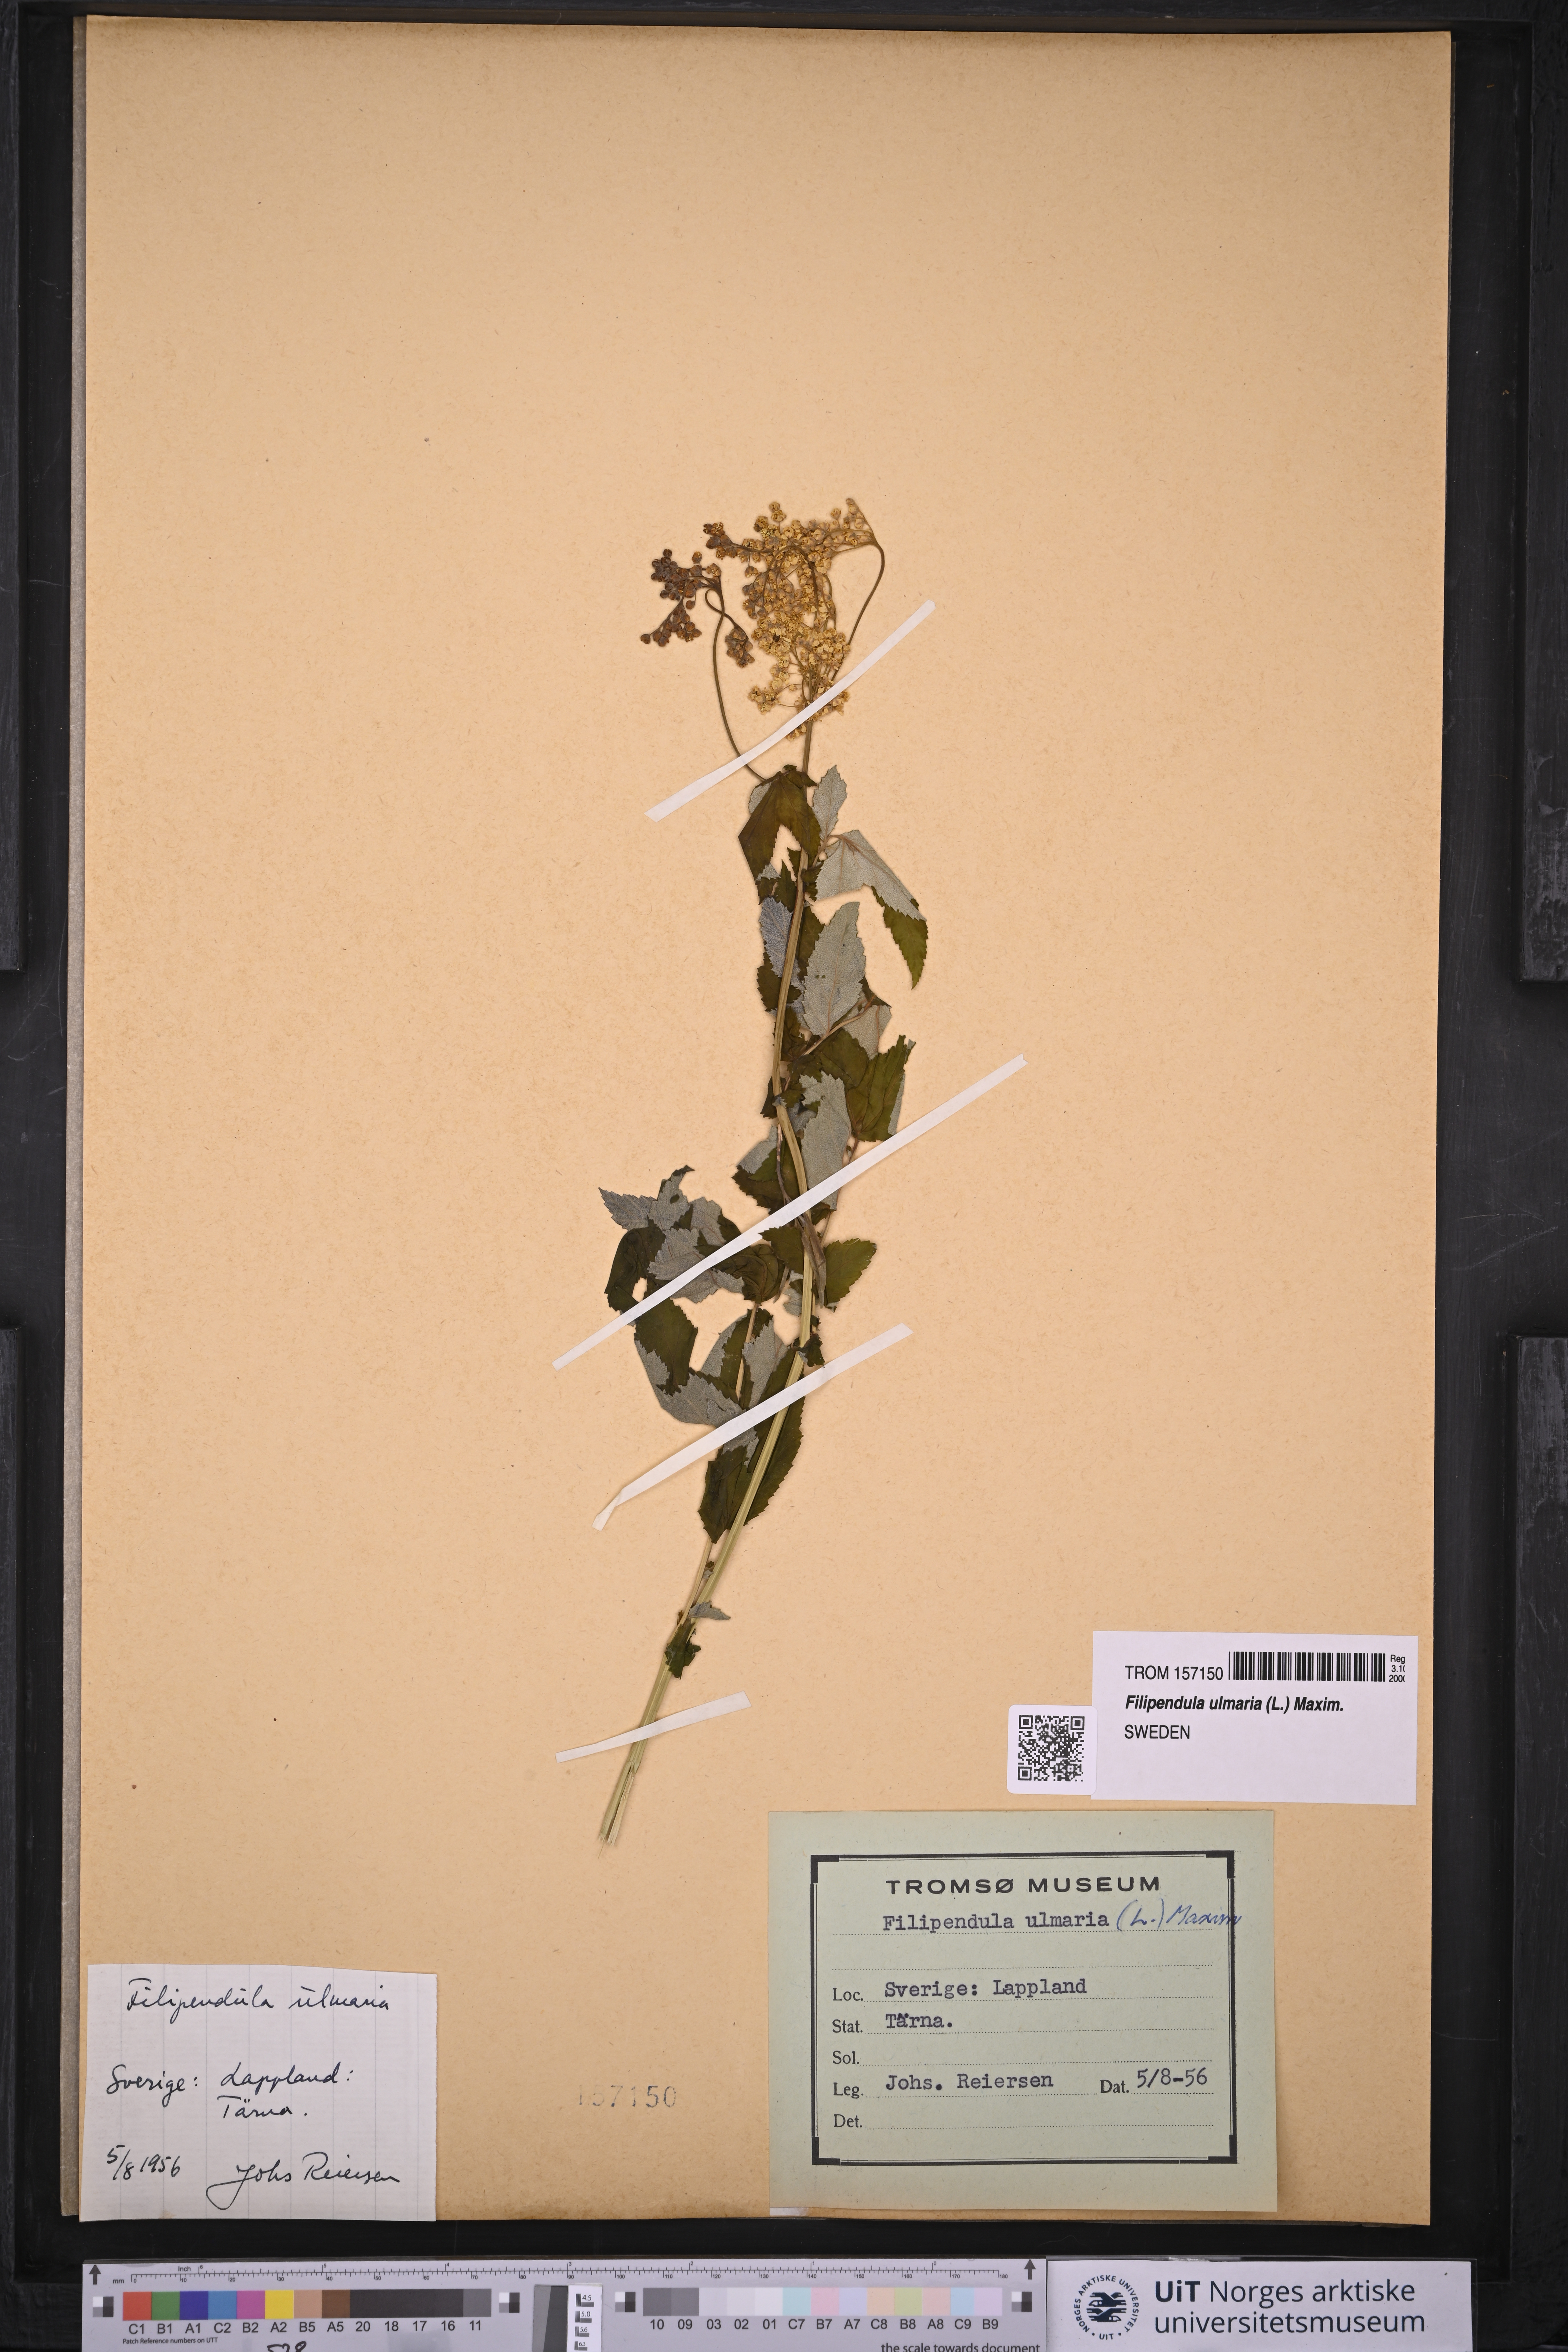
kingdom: Plantae
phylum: Tracheophyta
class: Magnoliopsida
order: Rosales
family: Rosaceae
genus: Filipendula
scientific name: Filipendula ulmaria
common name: Meadowsweet
